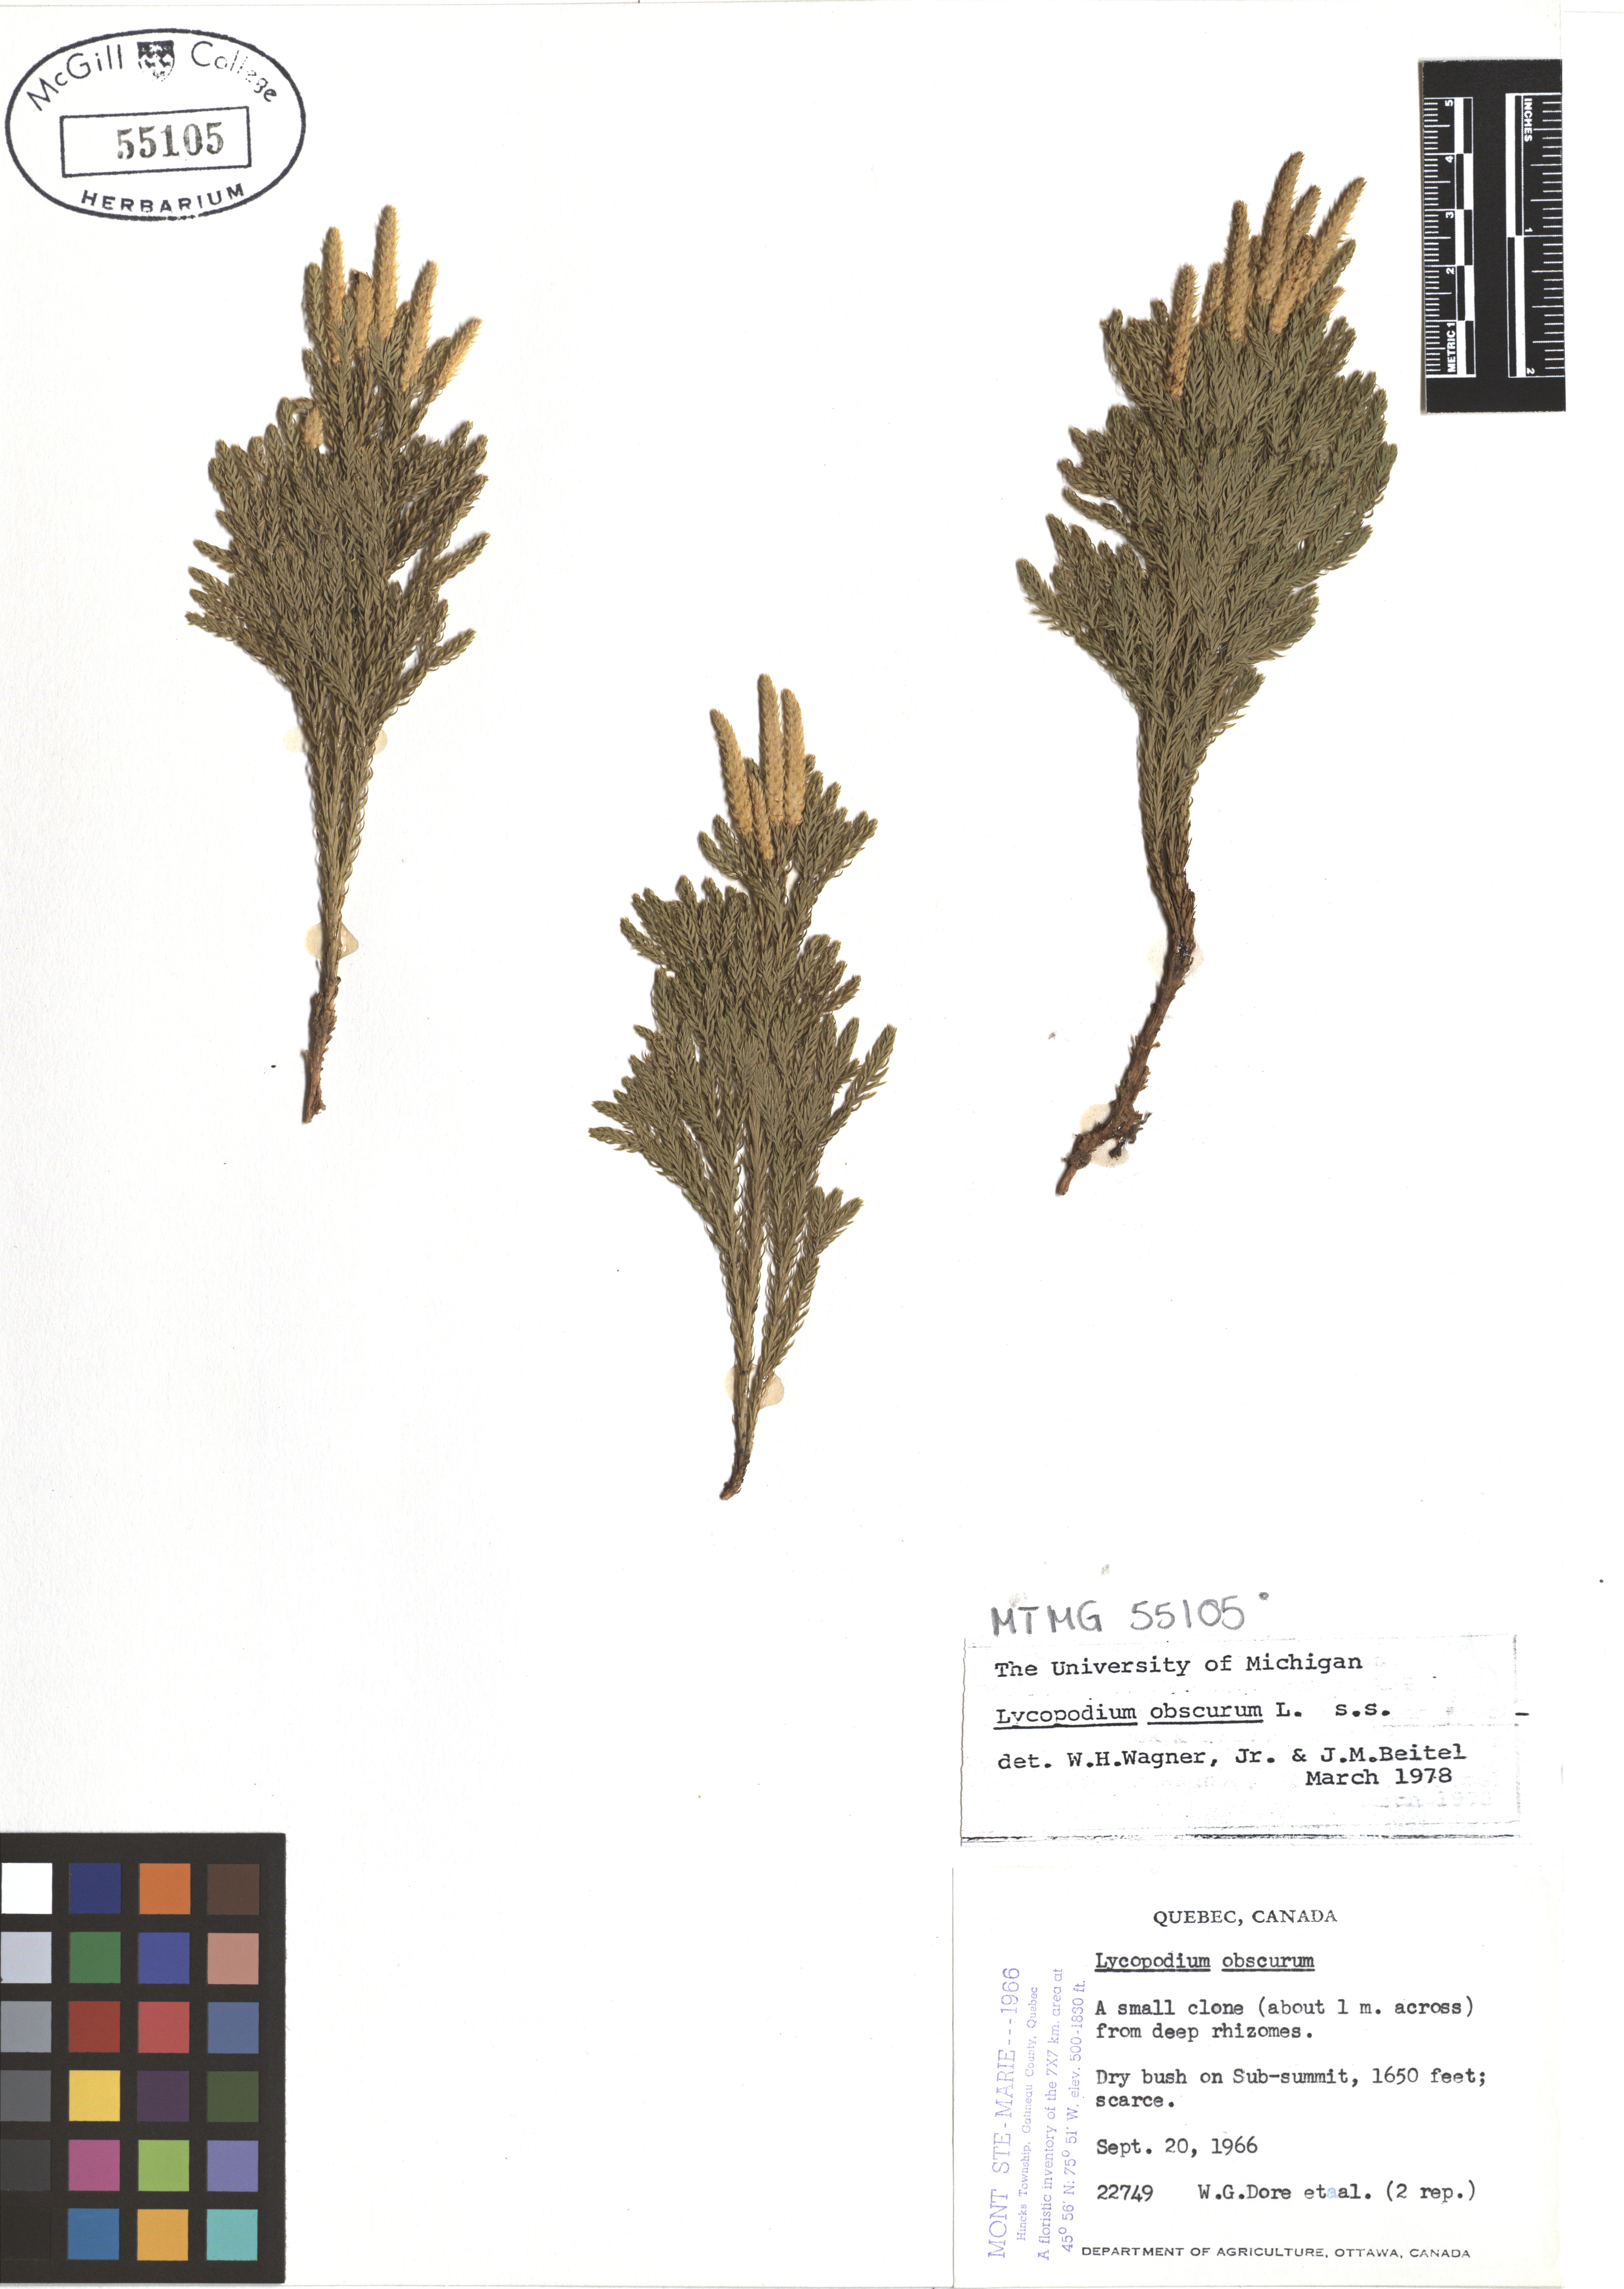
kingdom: Plantae
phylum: Tracheophyta
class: Lycopodiopsida
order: Lycopodiales
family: Lycopodiaceae
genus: Dendrolycopodium
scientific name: Dendrolycopodium obscurum
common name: Common ground-pine
